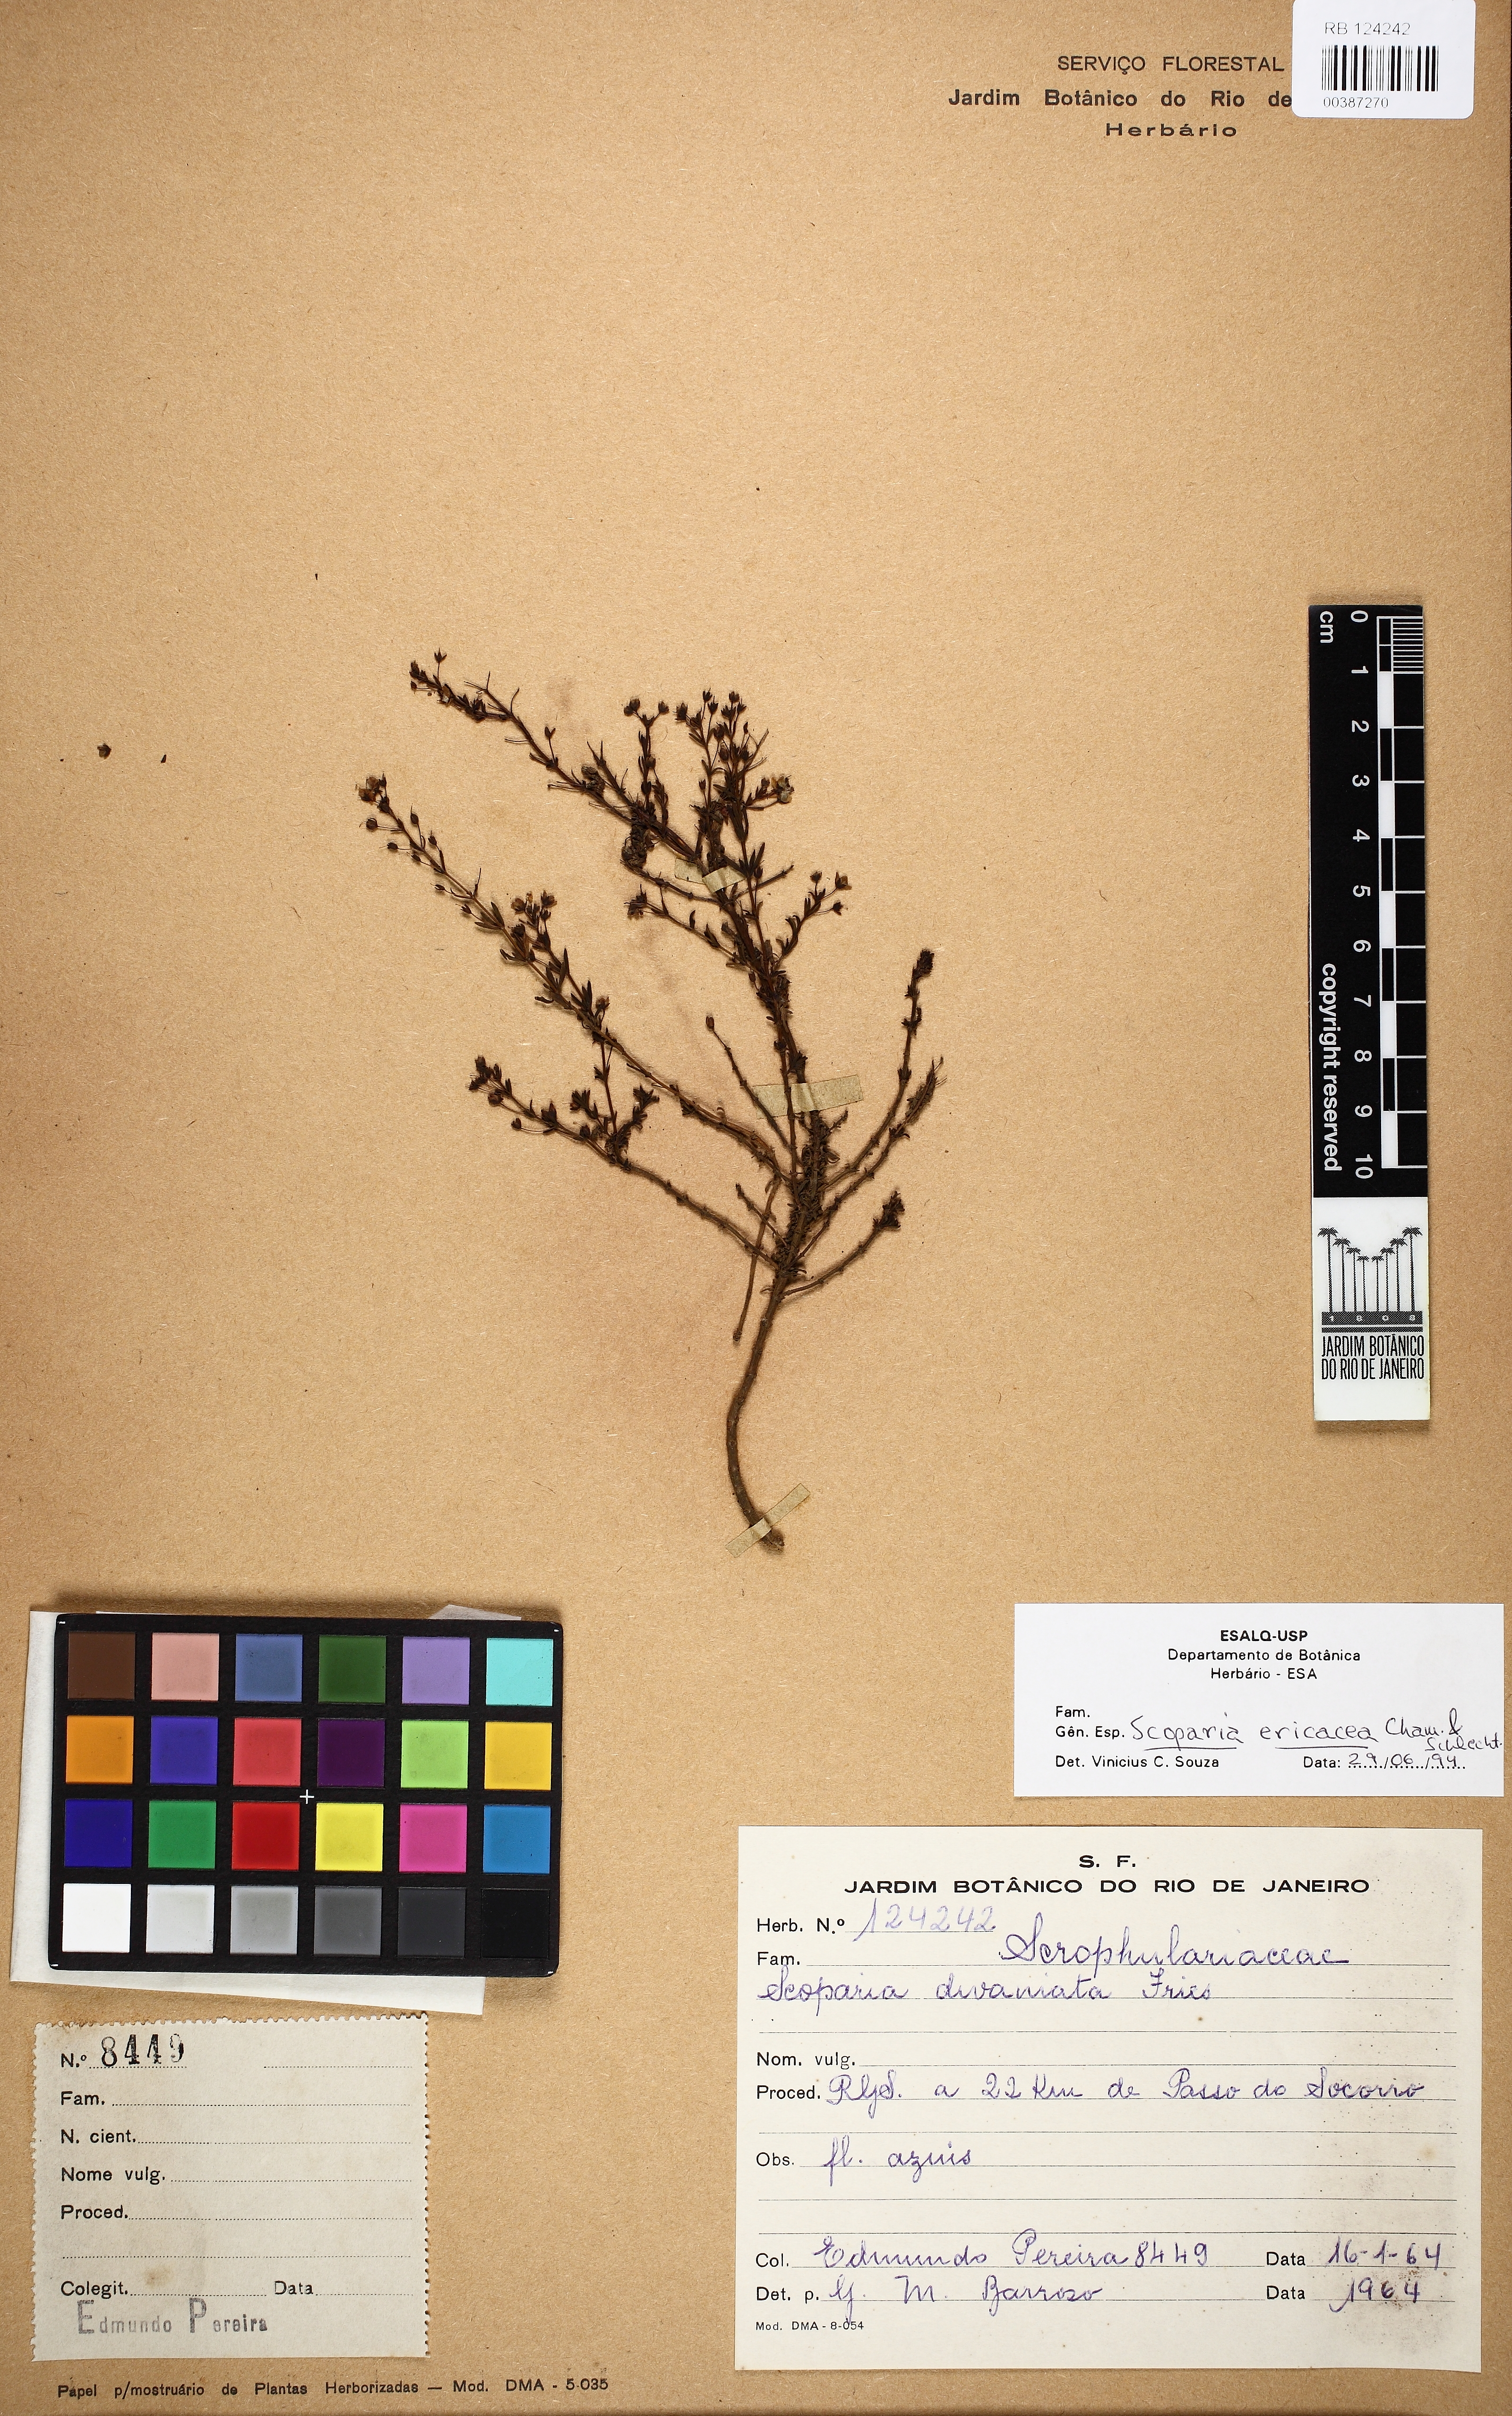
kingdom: Plantae
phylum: Tracheophyta
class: Magnoliopsida
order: Lamiales
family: Plantaginaceae
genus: Scoparia
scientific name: Scoparia ericacea
